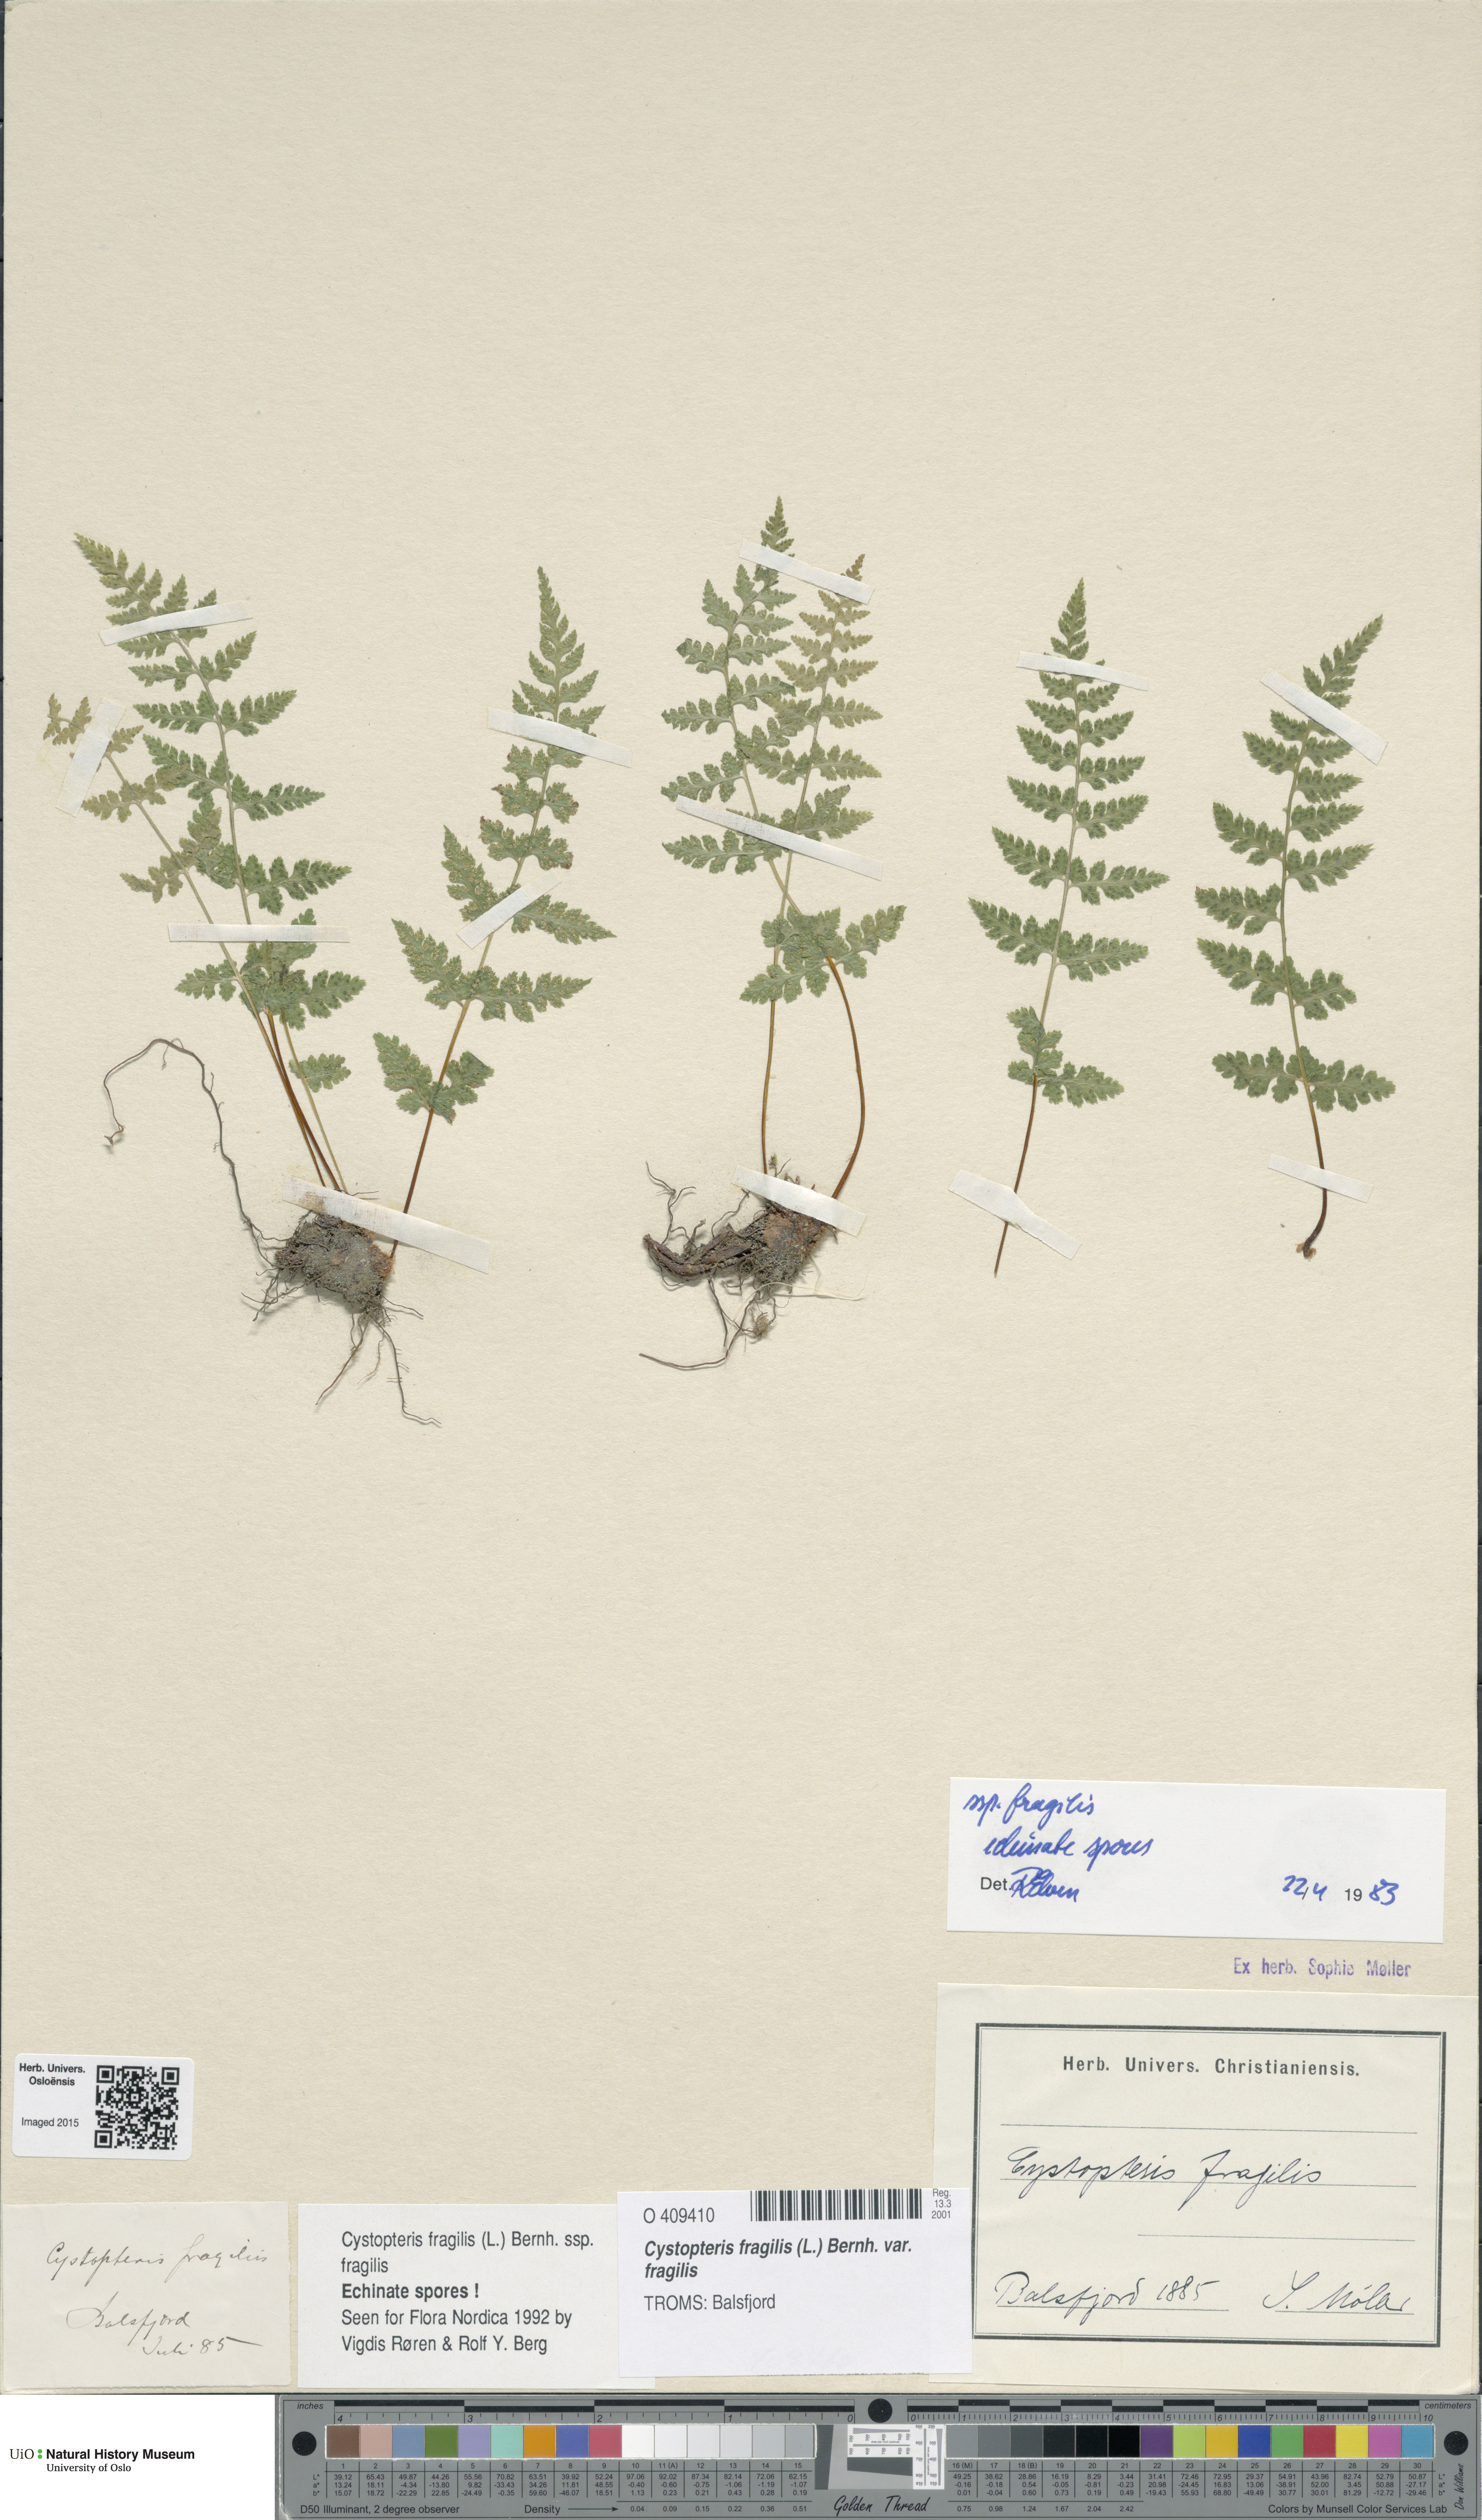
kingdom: Plantae
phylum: Tracheophyta
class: Polypodiopsida
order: Polypodiales
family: Cystopteridaceae
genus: Cystopteris
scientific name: Cystopteris fragilis
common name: Brittle bladder fern
